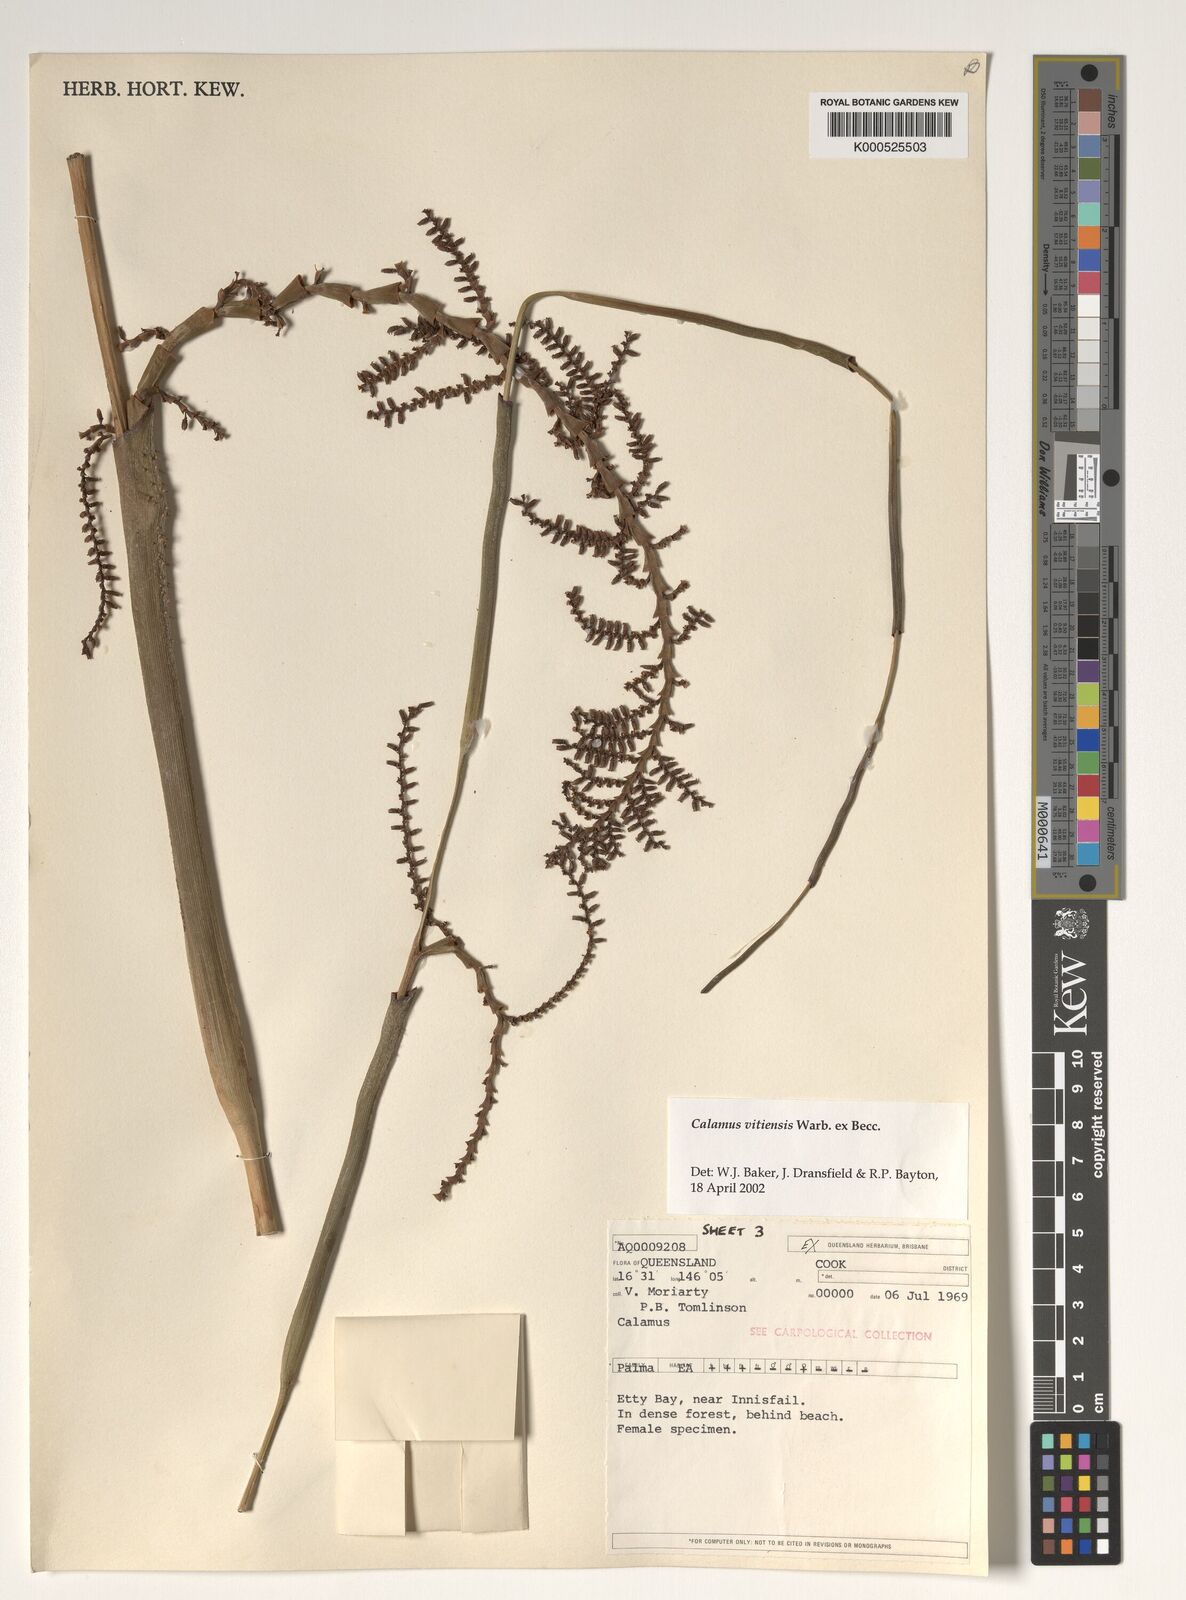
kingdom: Plantae
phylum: Tracheophyta
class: Liliopsida
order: Arecales
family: Arecaceae
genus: Calamus
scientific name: Calamus vitiensis
